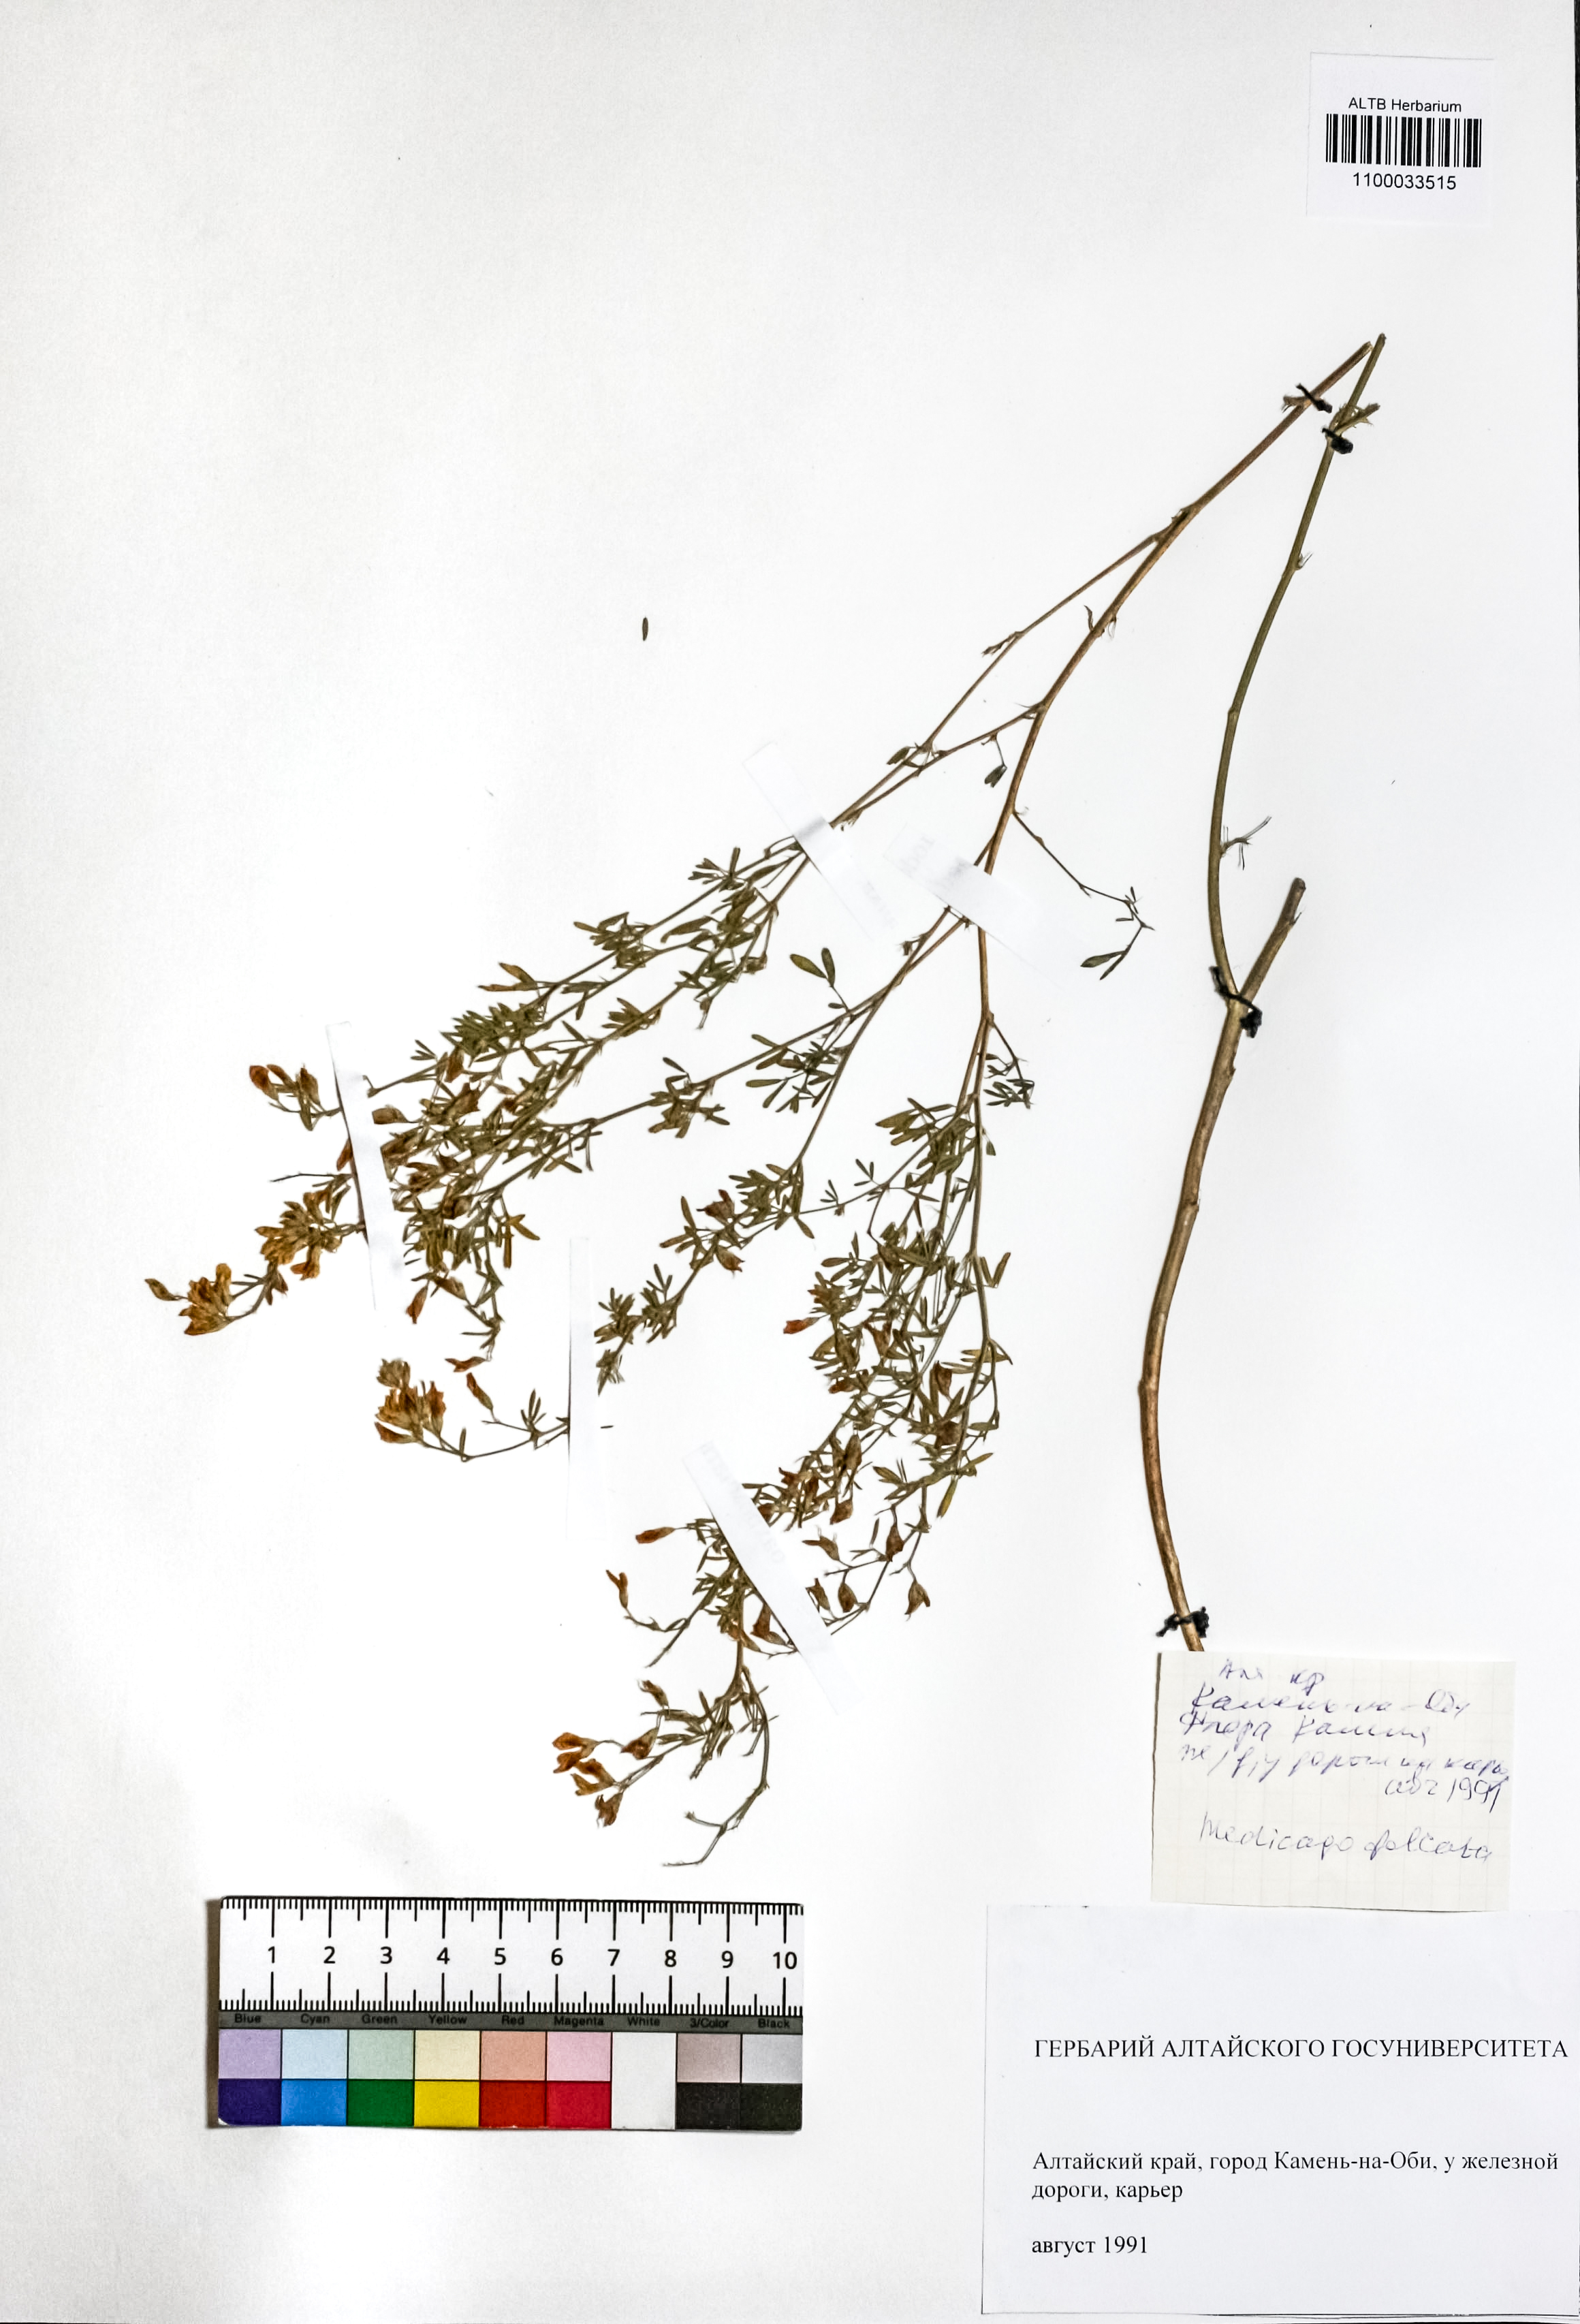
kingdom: Plantae
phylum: Tracheophyta
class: Magnoliopsida
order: Fabales
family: Fabaceae
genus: Medicago
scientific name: Medicago falcata
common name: Sickle medick
